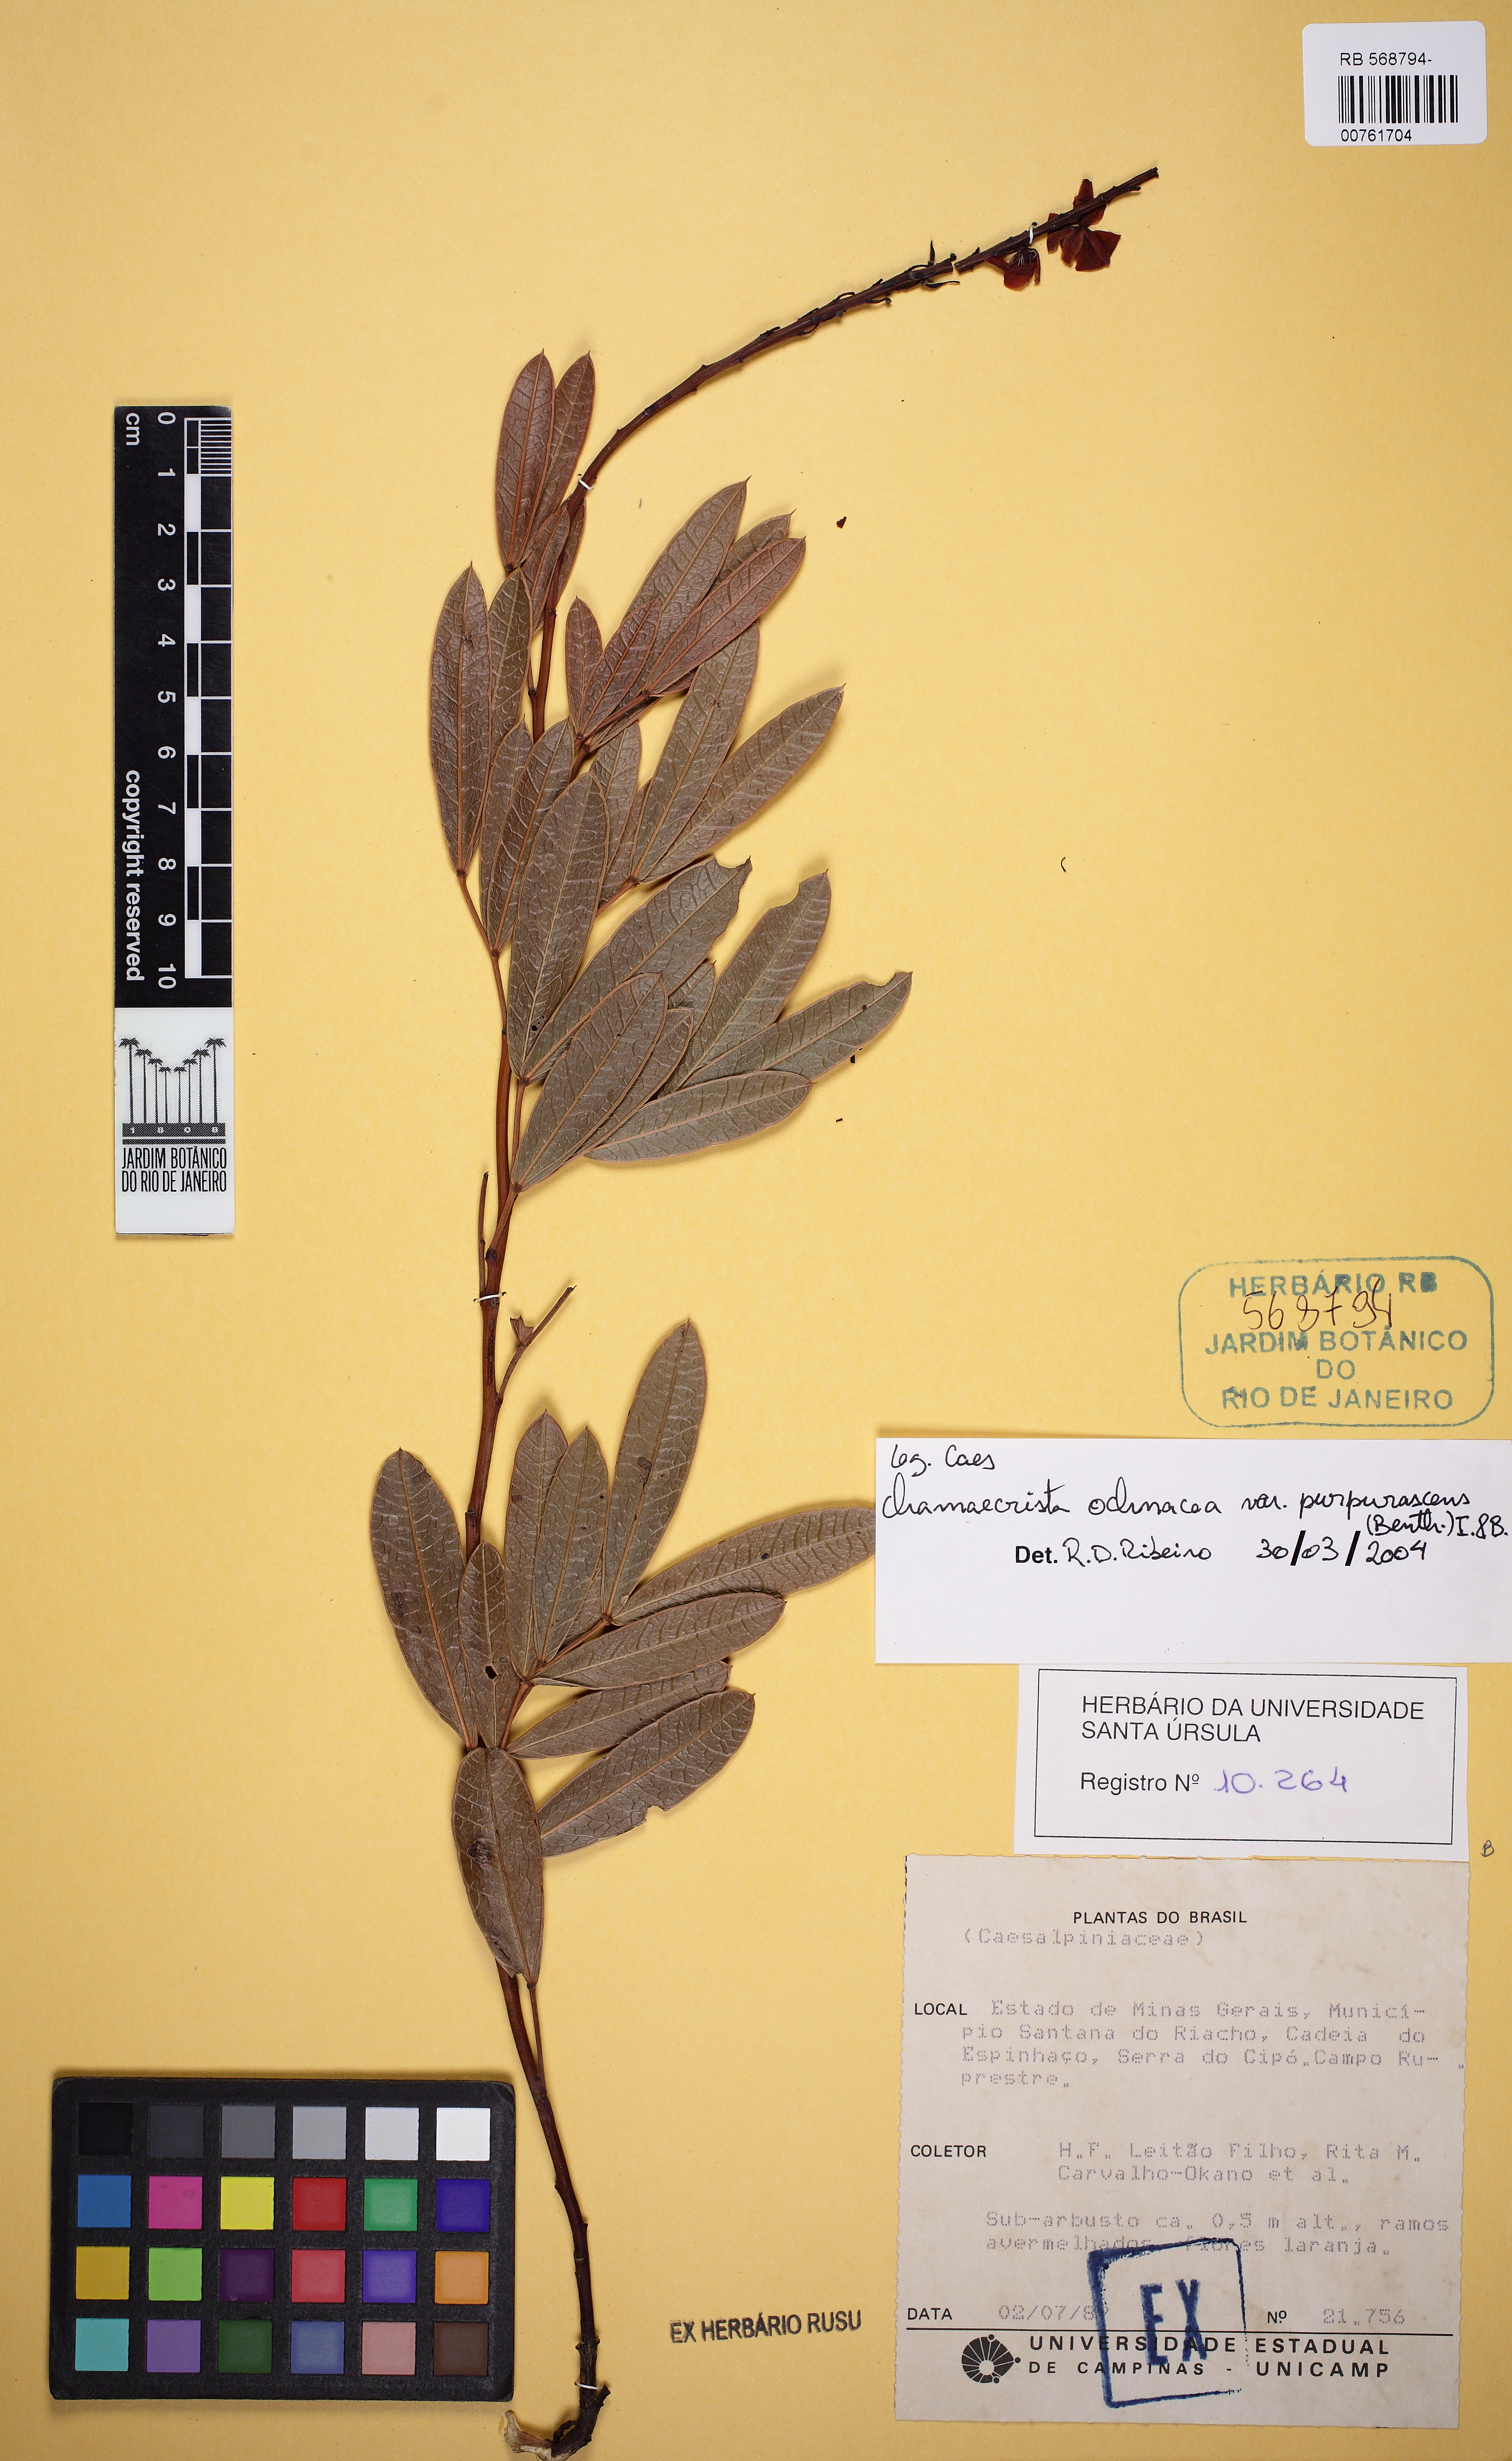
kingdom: Plantae
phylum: Tracheophyta
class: Magnoliopsida
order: Fabales
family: Fabaceae
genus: Chamaecrista
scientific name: Chamaecrista ochnacea
